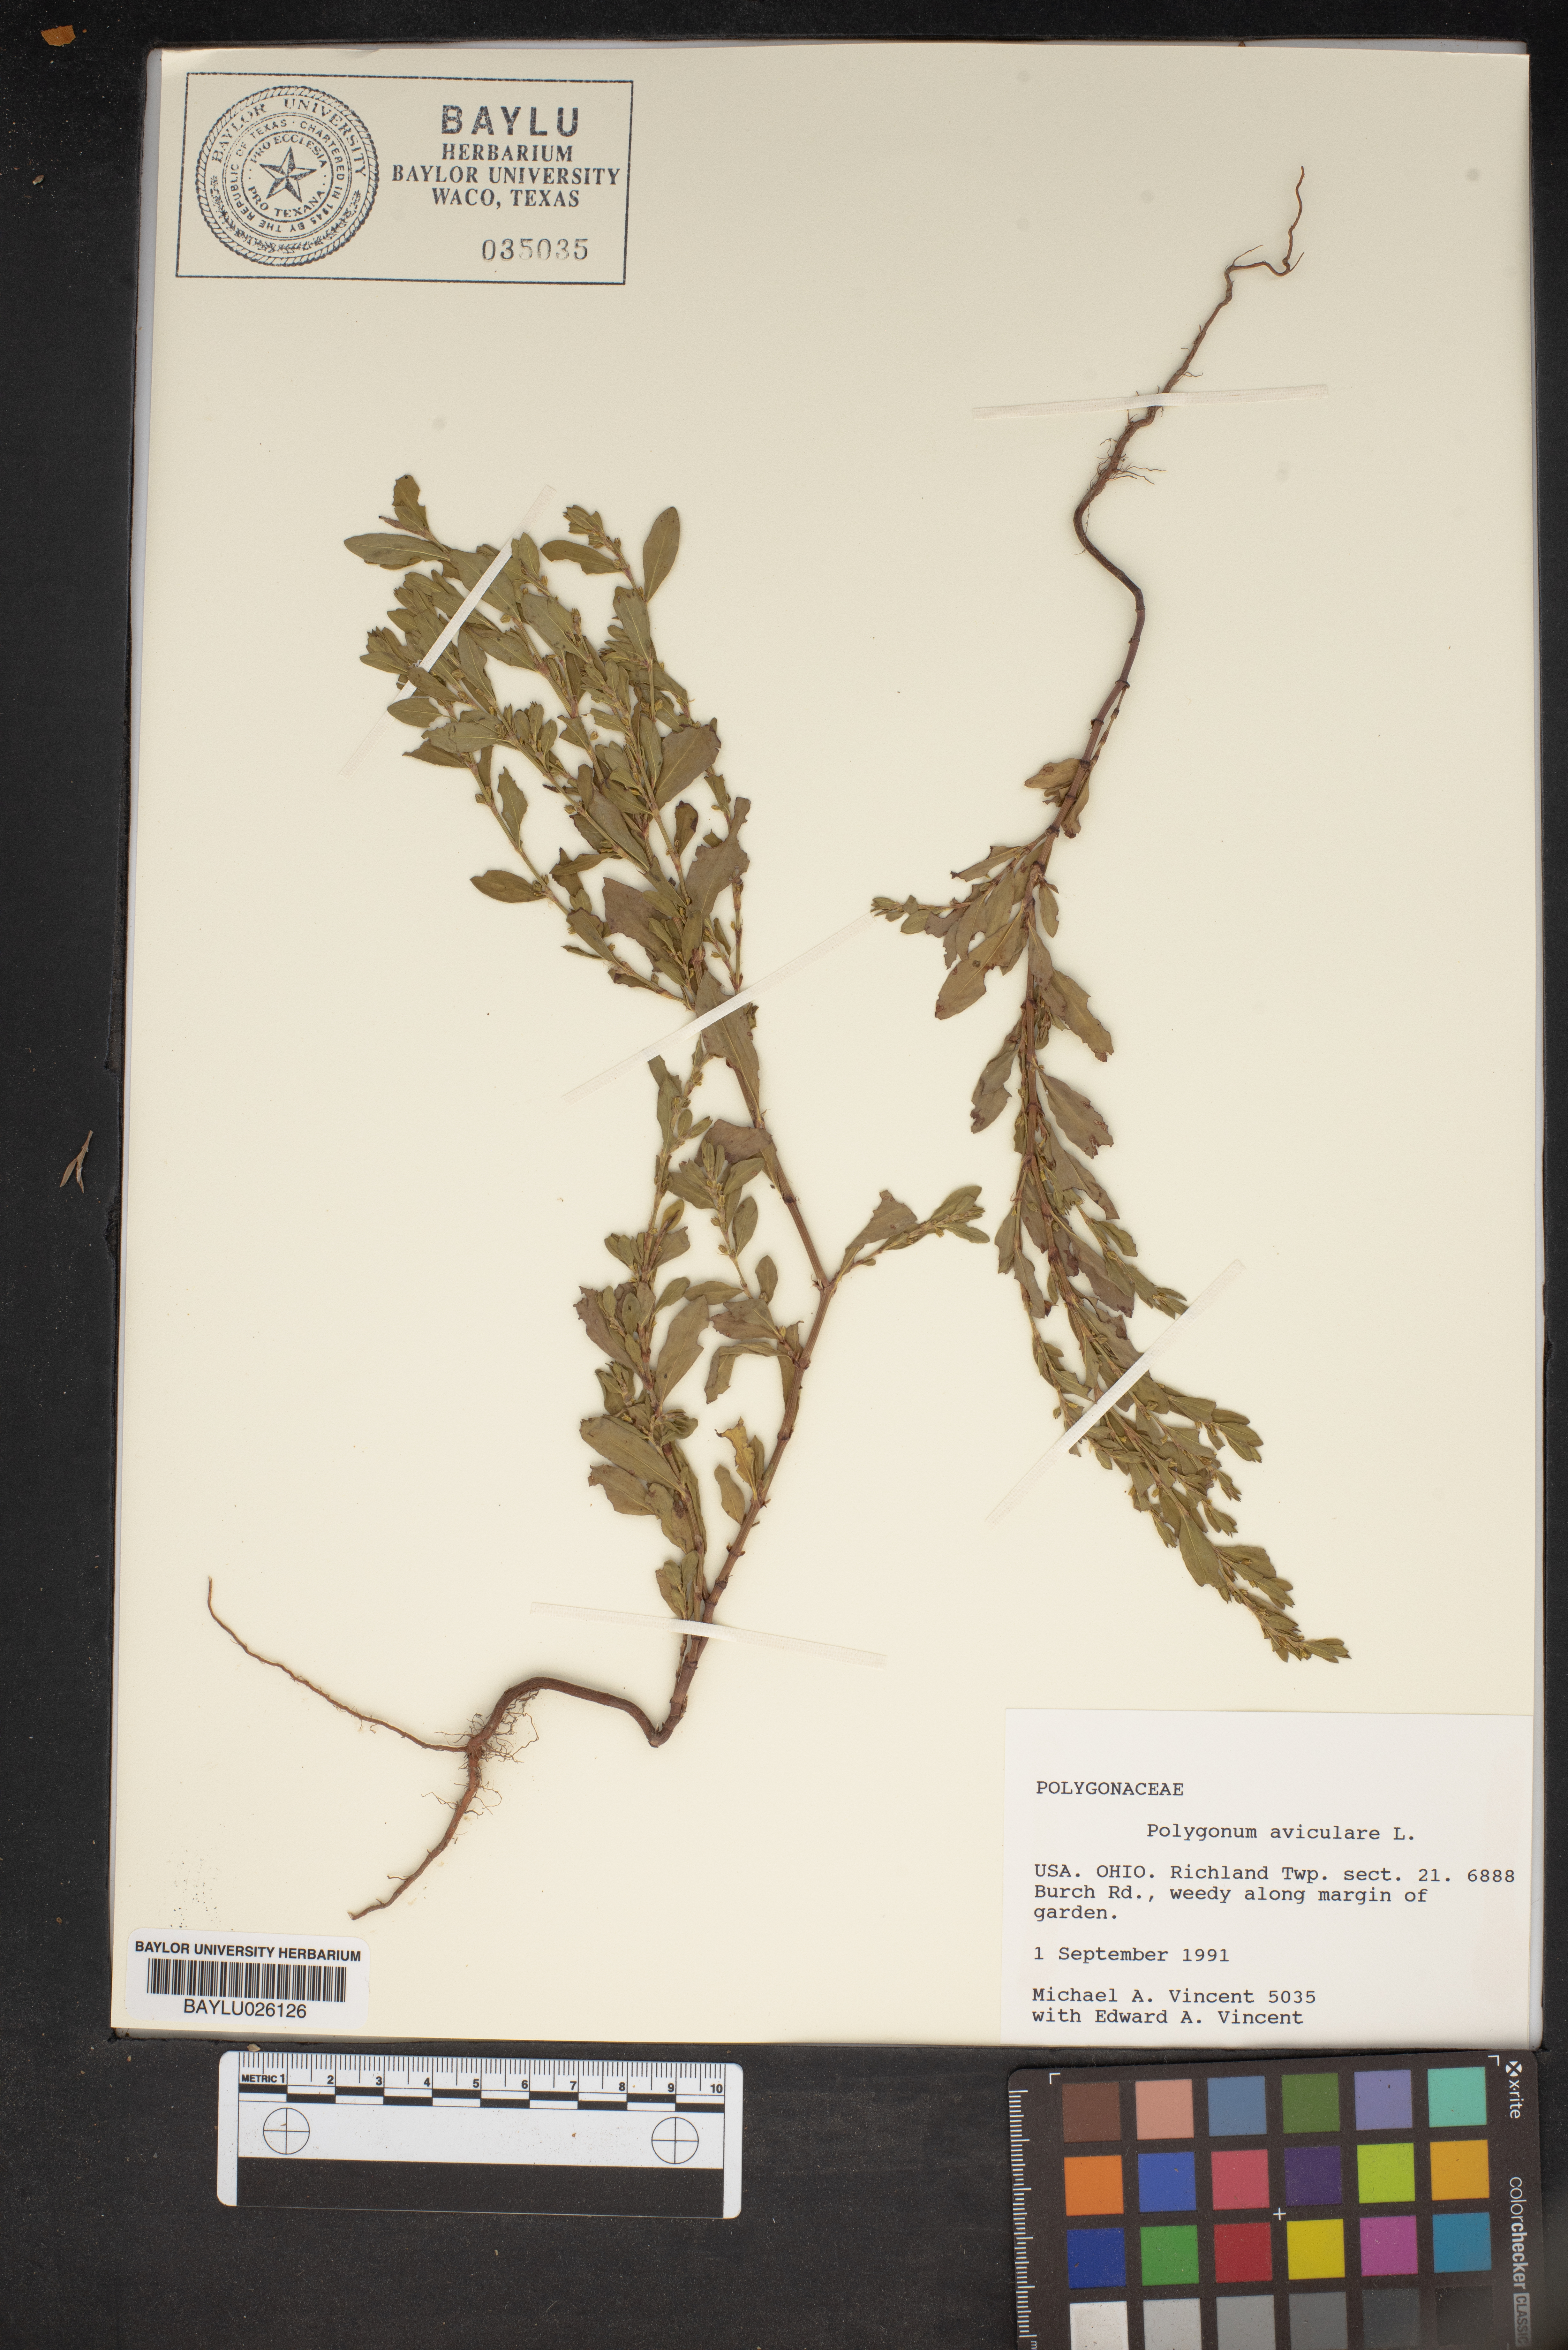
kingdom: Plantae
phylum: Tracheophyta
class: Magnoliopsida
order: Caryophyllales
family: Polygonaceae
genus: Polygonum
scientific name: Polygonum aviculare
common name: Prostrate knotweed
